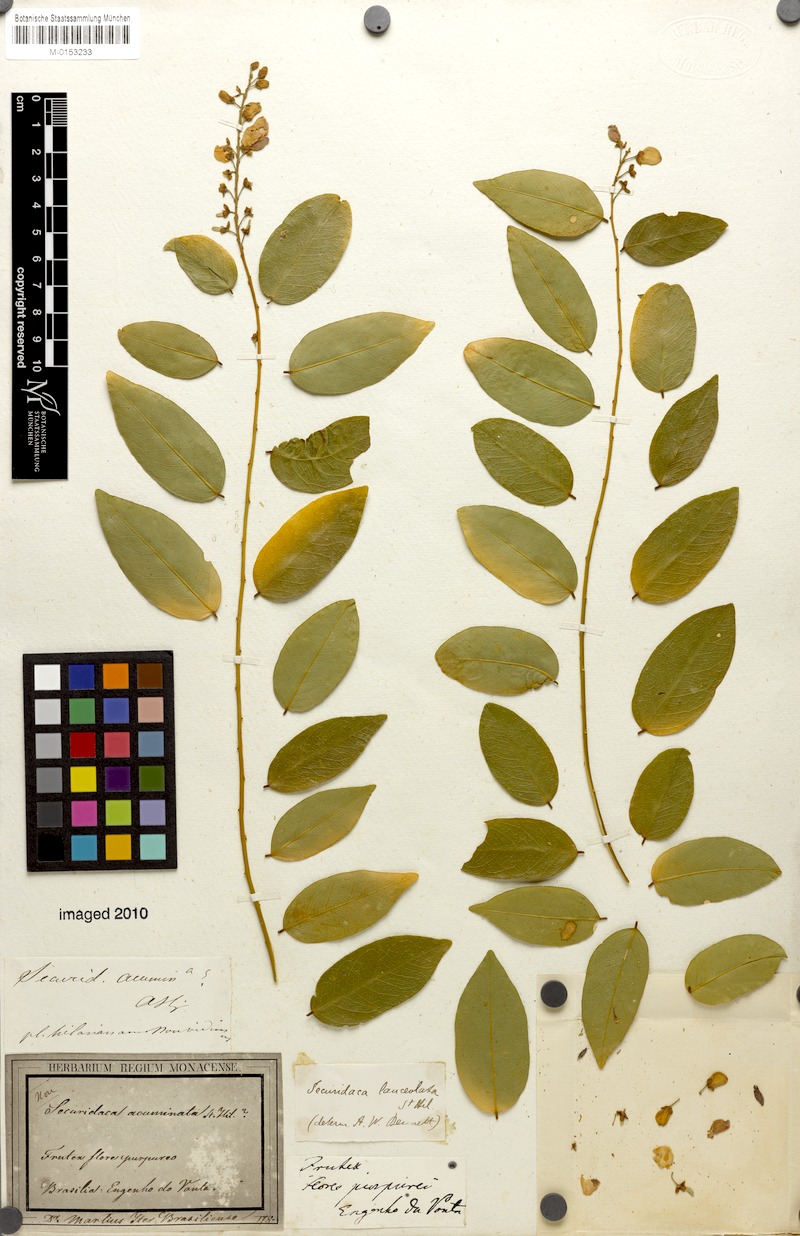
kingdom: Plantae
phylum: Tracheophyta
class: Magnoliopsida
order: Fabales
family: Polygalaceae
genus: Securidaca
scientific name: Securidaca lanceolata
